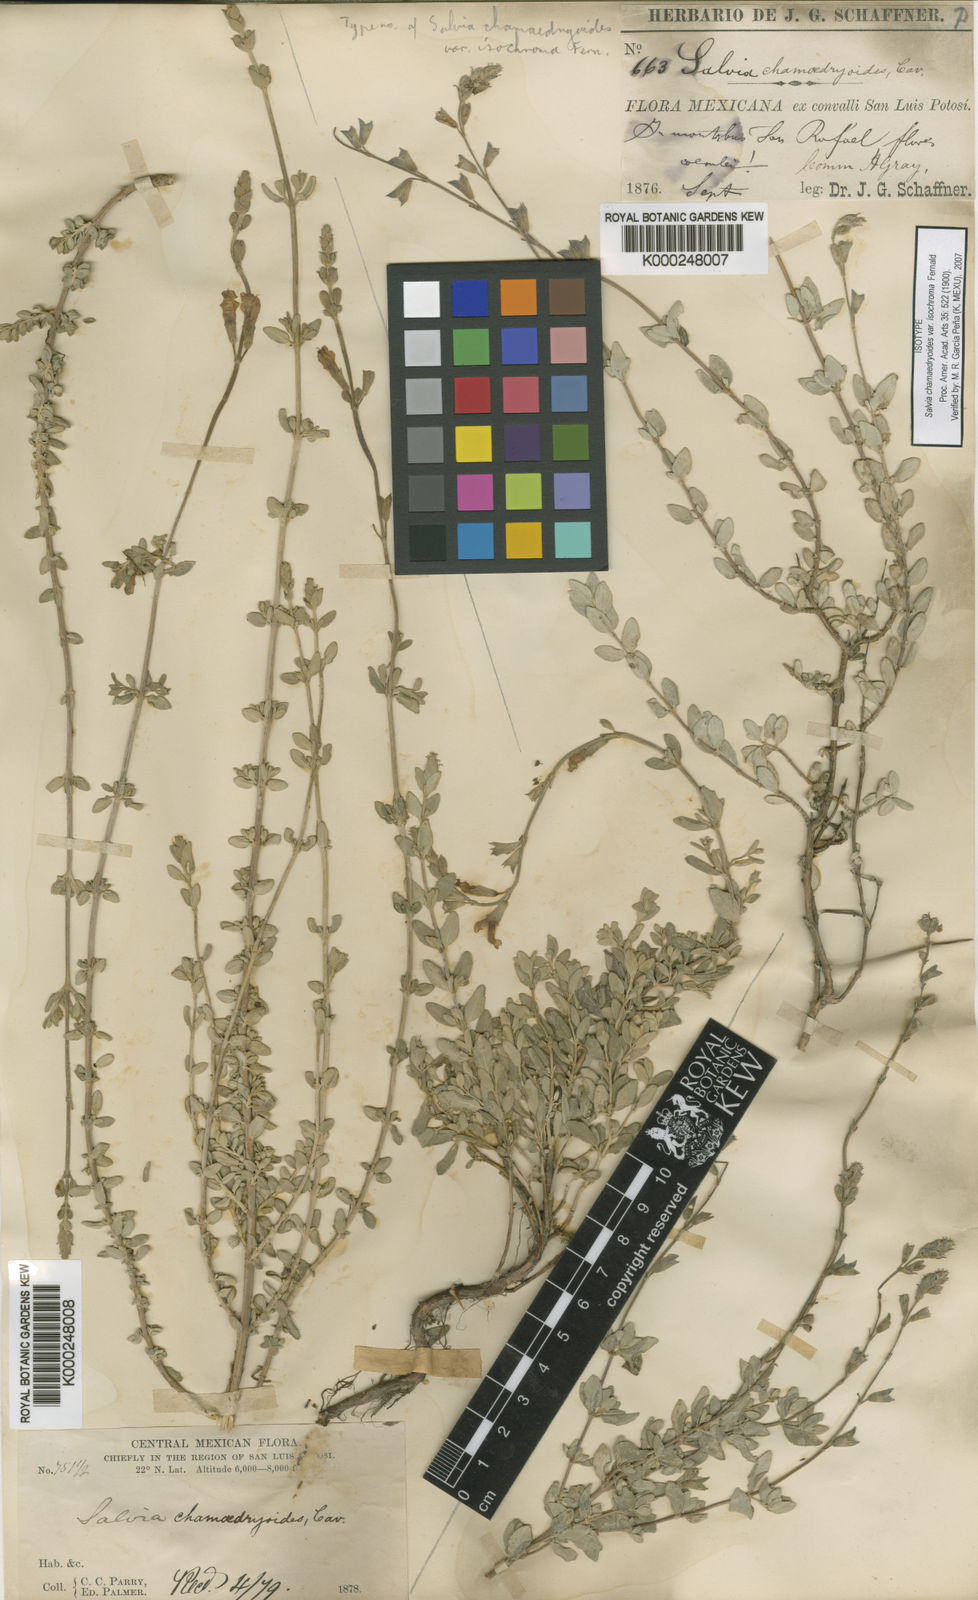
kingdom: Plantae
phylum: Tracheophyta
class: Magnoliopsida
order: Lamiales
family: Lamiaceae
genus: Salvia
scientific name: Salvia
